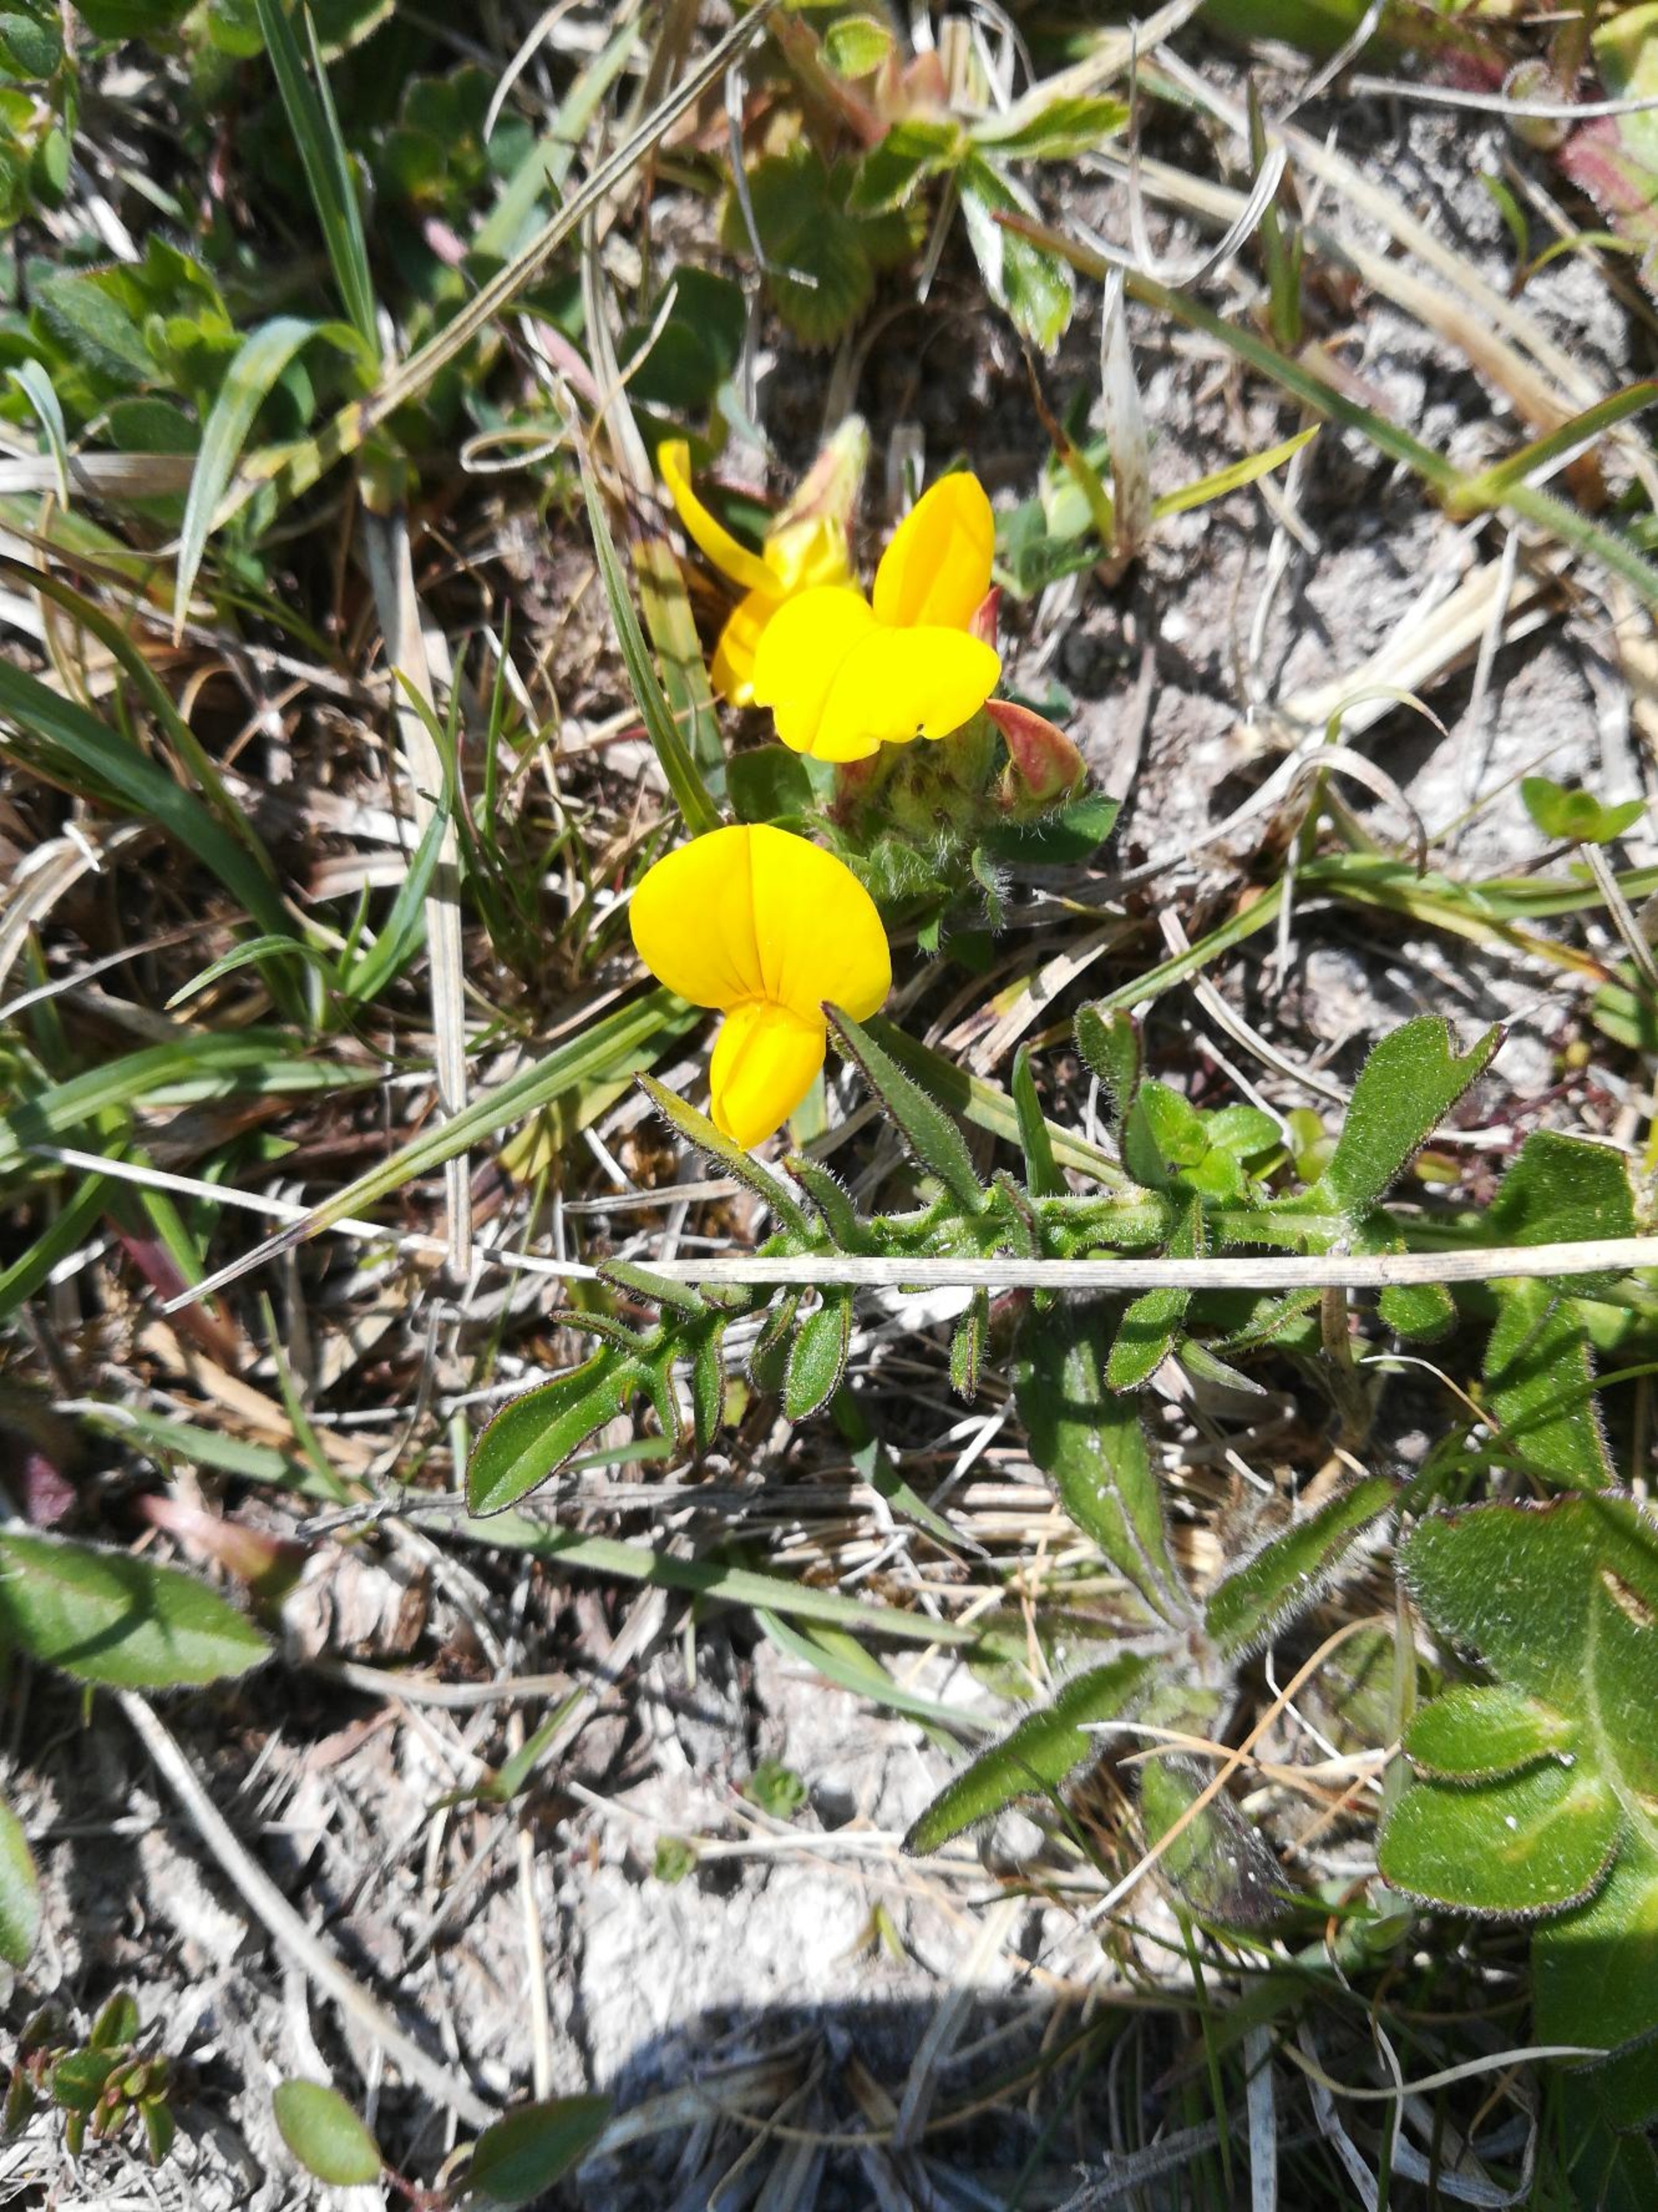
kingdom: Plantae
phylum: Tracheophyta
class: Magnoliopsida
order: Fabales
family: Fabaceae
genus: Lotus
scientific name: Lotus corniculatus
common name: Almindelig kællingetand
